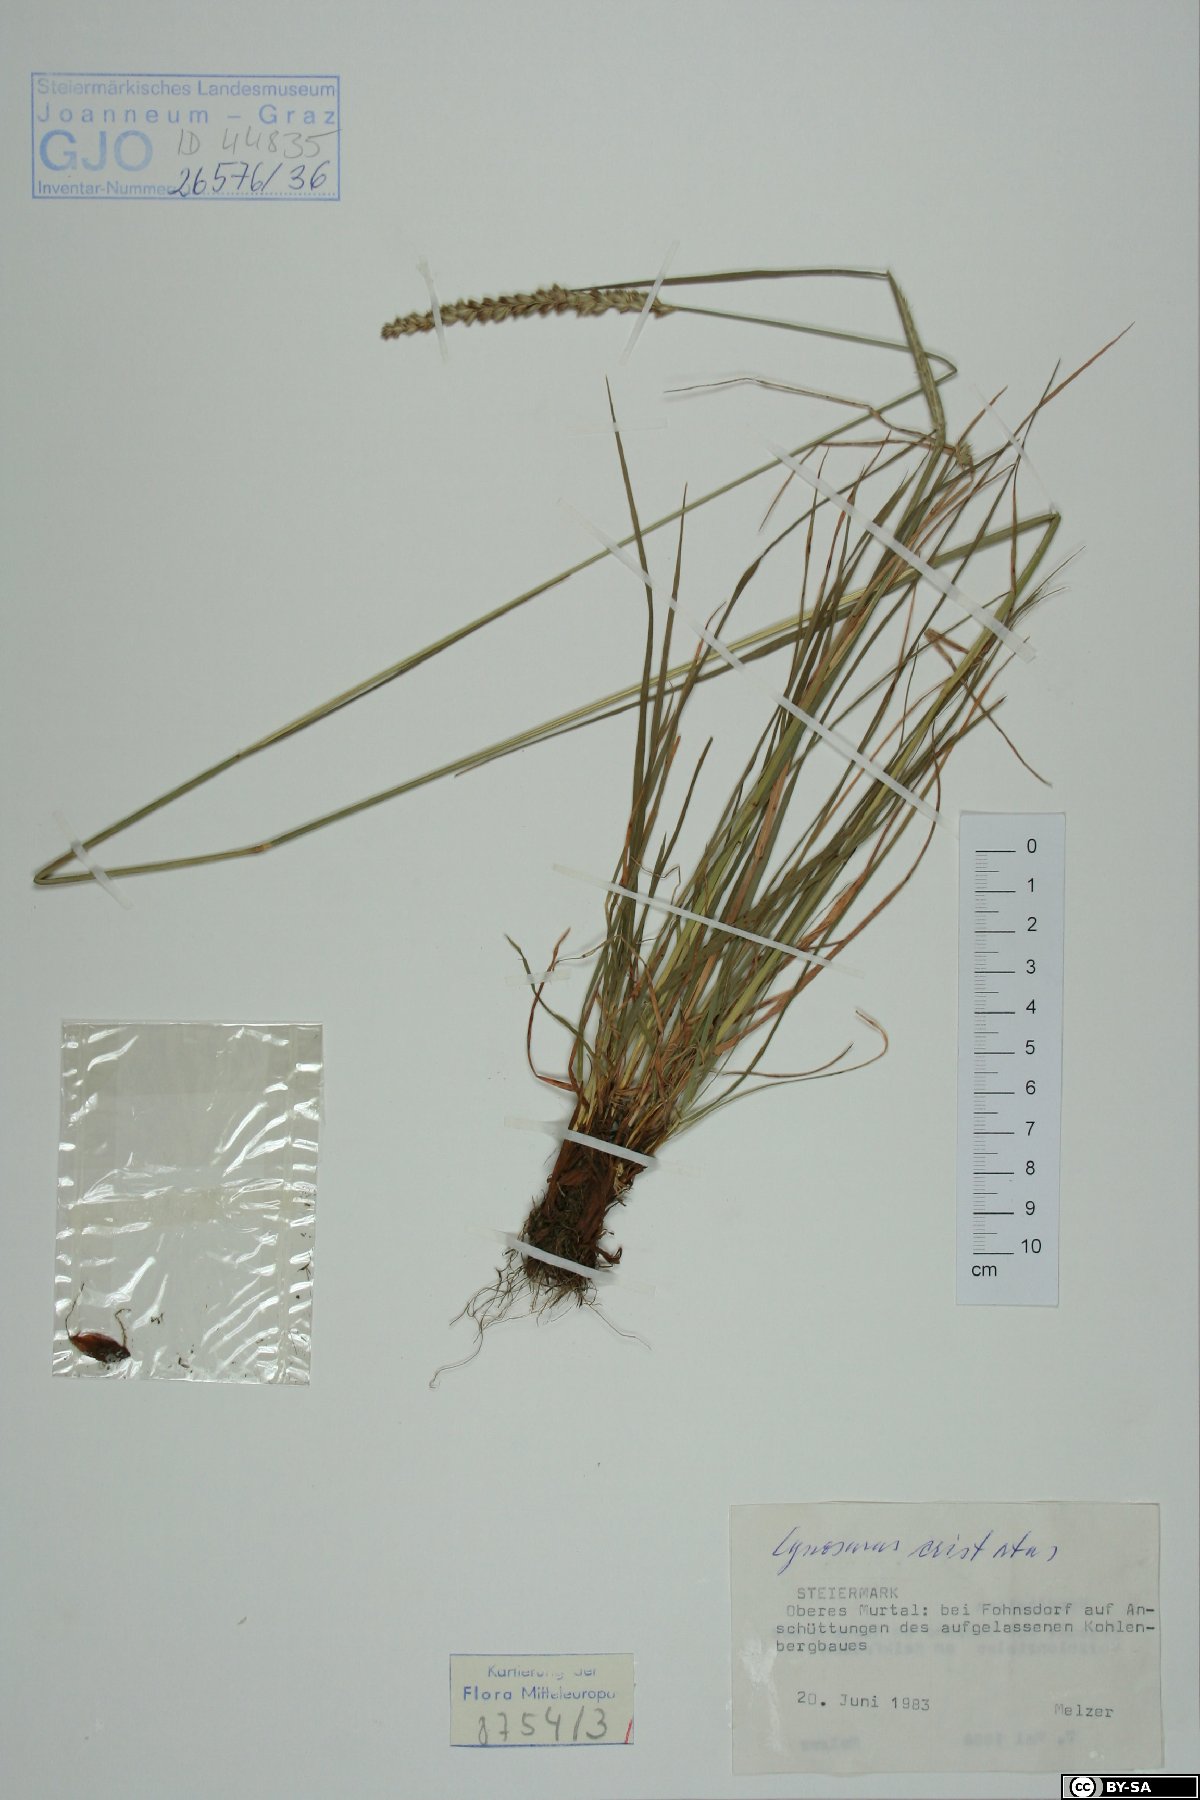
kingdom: Plantae
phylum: Tracheophyta
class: Liliopsida
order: Poales
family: Poaceae
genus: Cynosurus
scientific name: Cynosurus cristatus
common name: Crested dog's-tail
